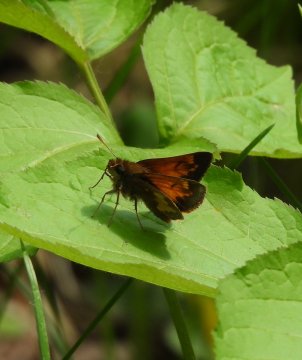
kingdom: Animalia
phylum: Arthropoda
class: Insecta
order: Lepidoptera
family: Hesperiidae
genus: Lon
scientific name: Lon hobomok
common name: Hobomok Skipper
